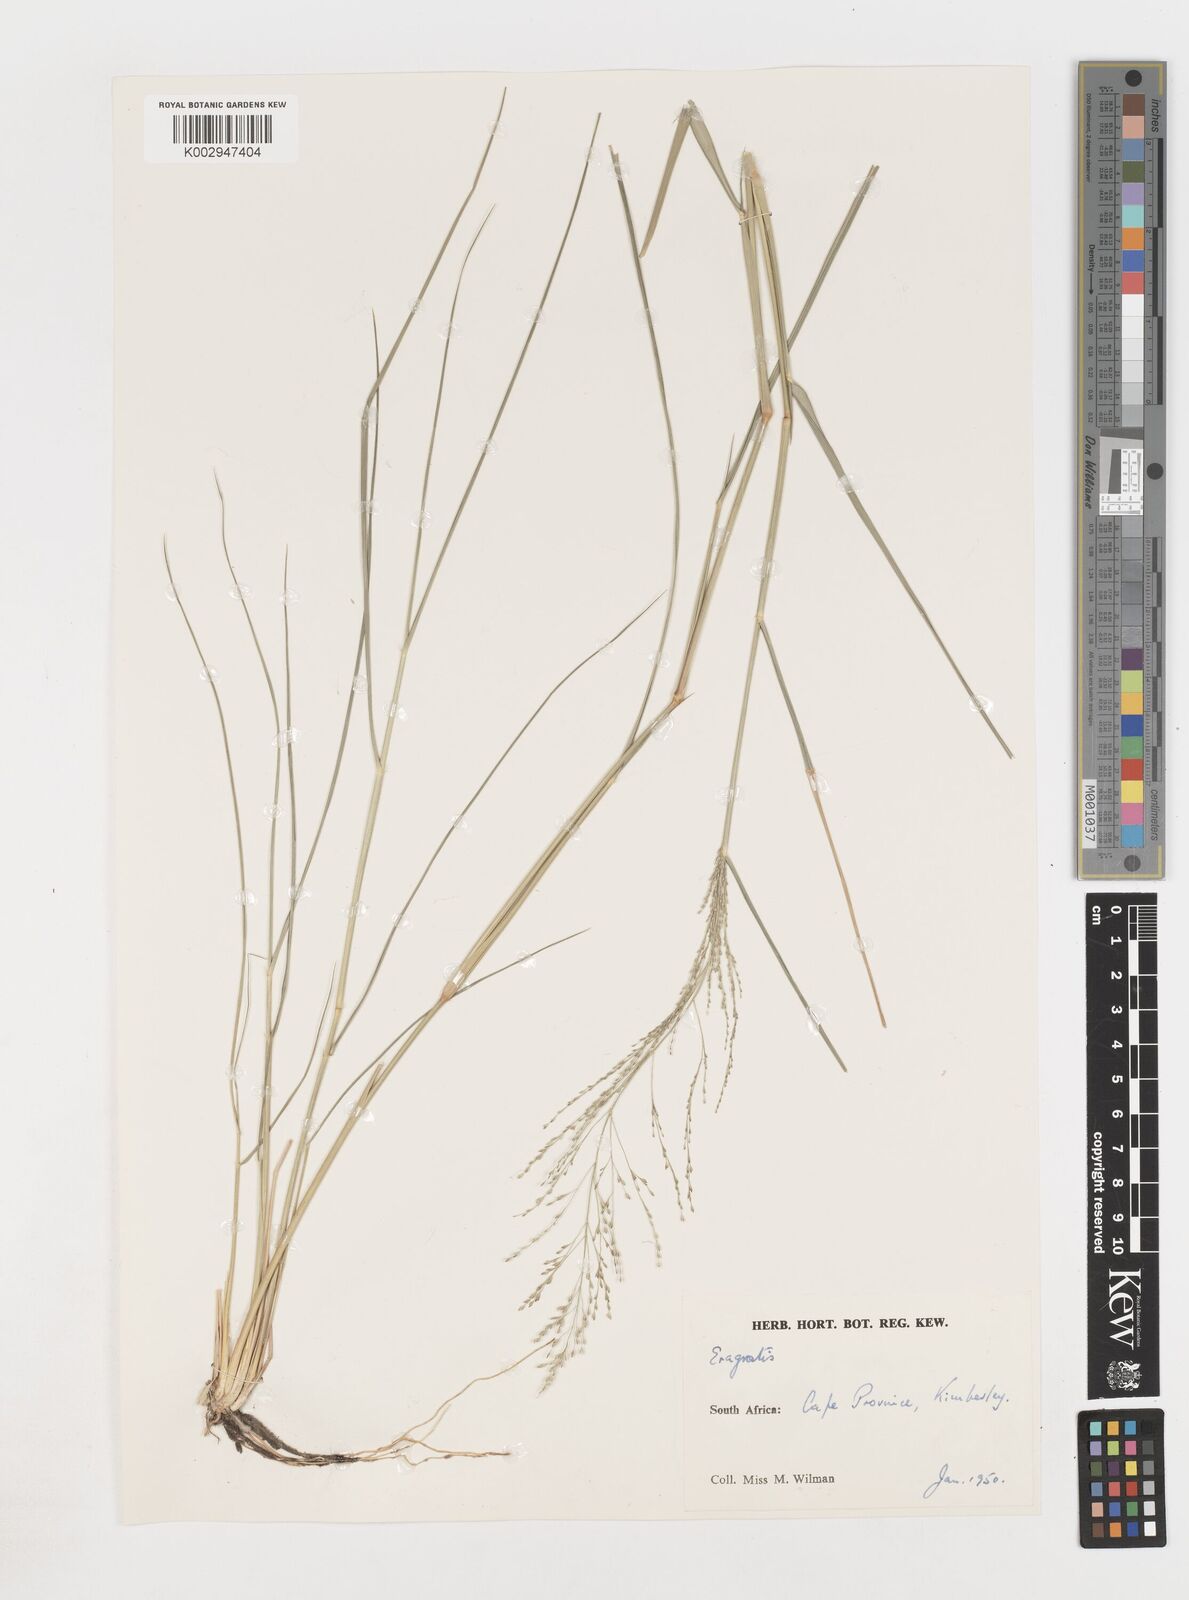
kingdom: Plantae
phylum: Tracheophyta
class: Liliopsida
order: Poales
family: Poaceae
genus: Eragrostis
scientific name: Eragrostis
